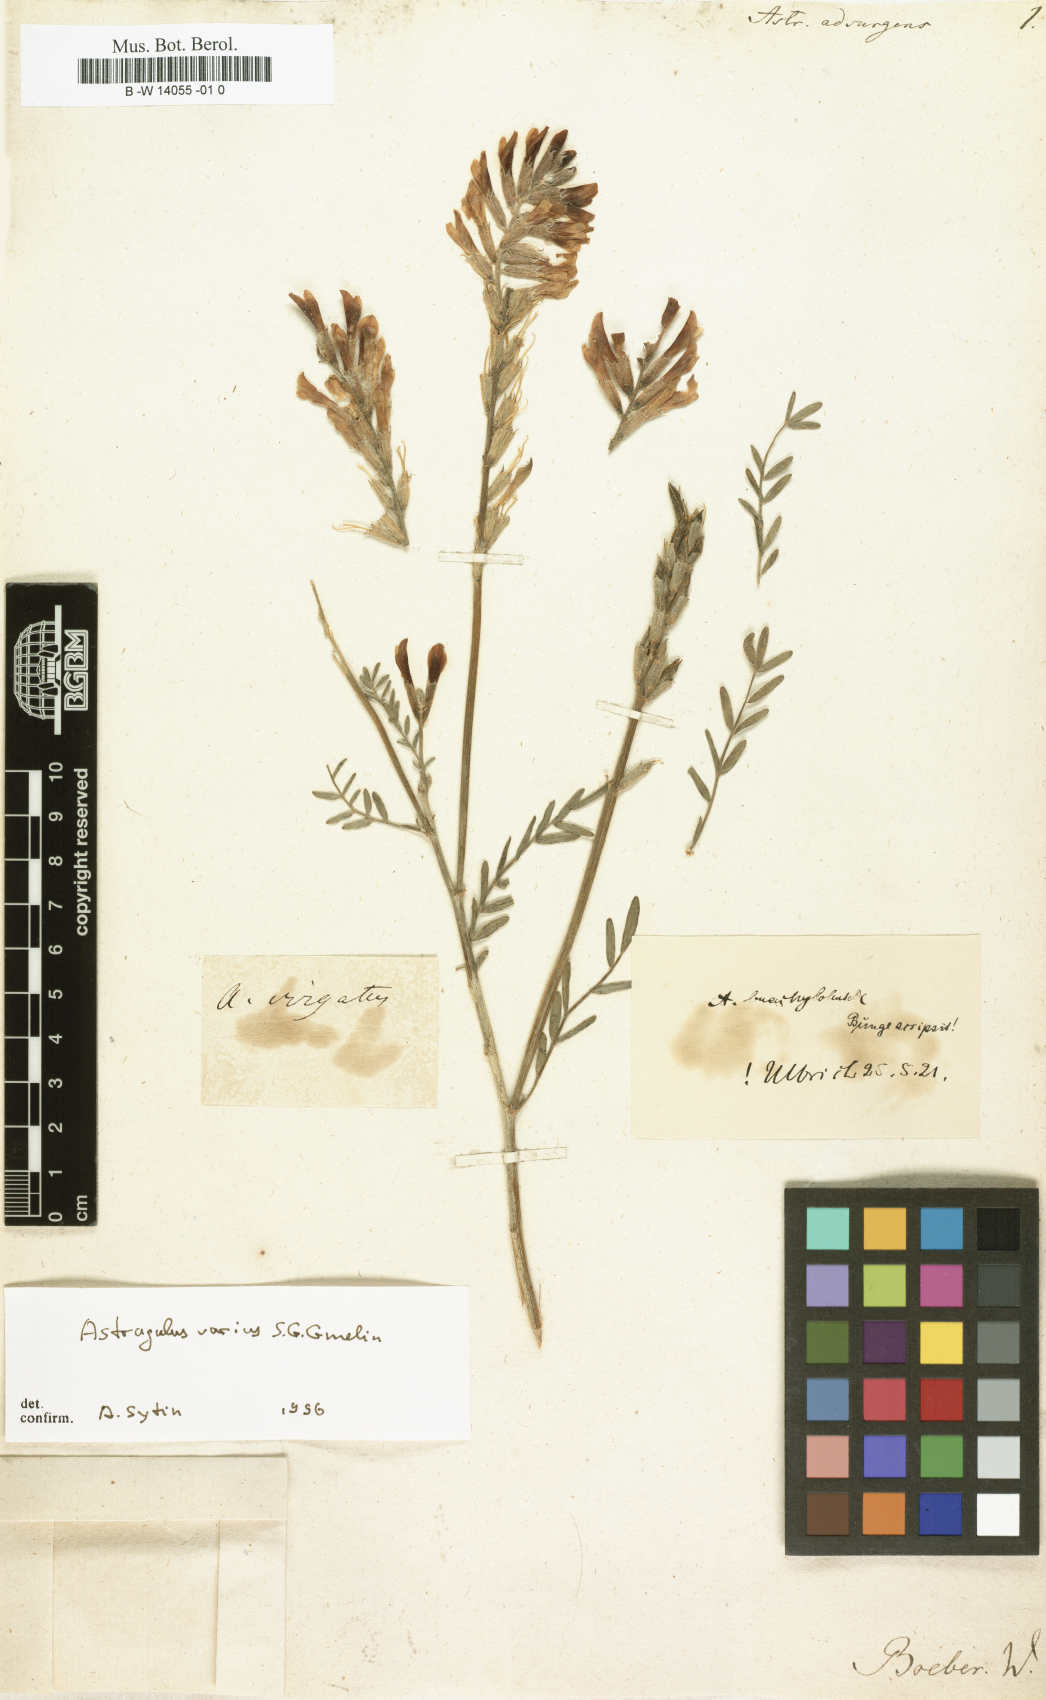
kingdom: Plantae
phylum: Tracheophyta
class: Magnoliopsida
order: Fabales
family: Fabaceae
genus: Astragalus
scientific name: Astragalus
